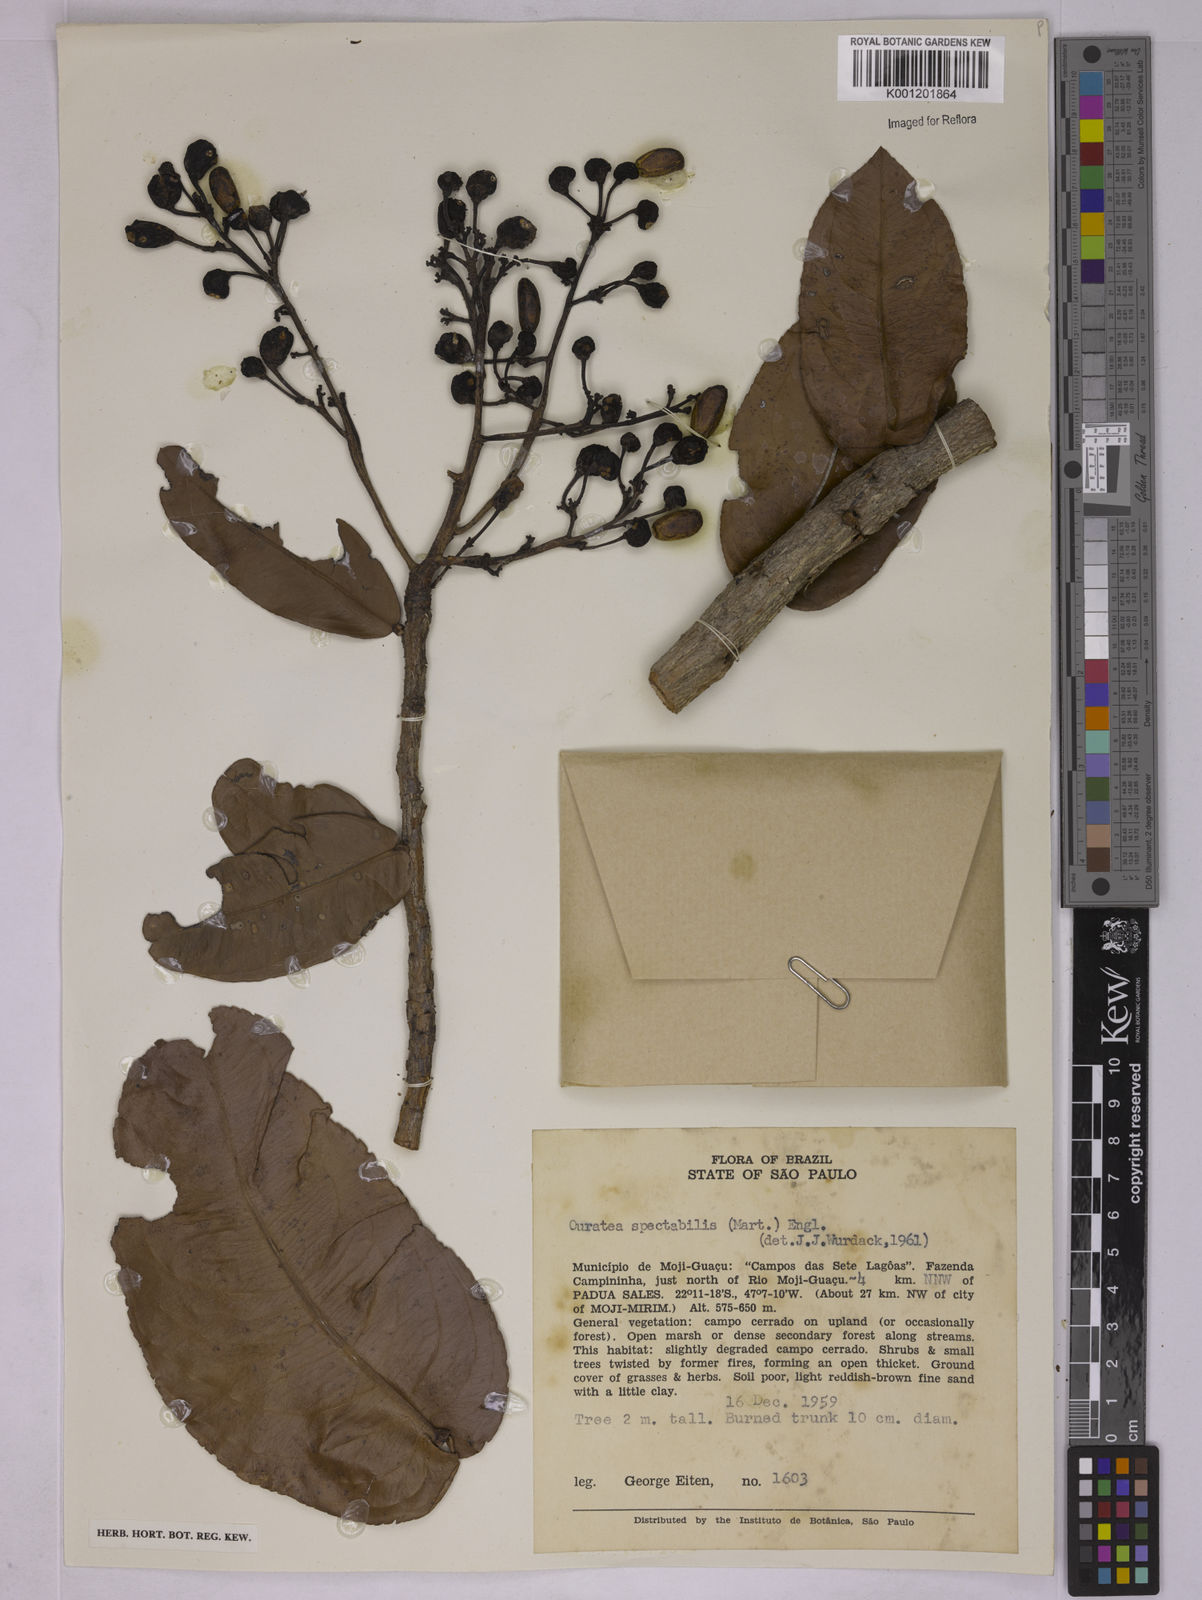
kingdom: Plantae
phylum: Tracheophyta
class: Magnoliopsida
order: Malpighiales
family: Ochnaceae
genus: Ouratea
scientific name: Ouratea spectabilis
